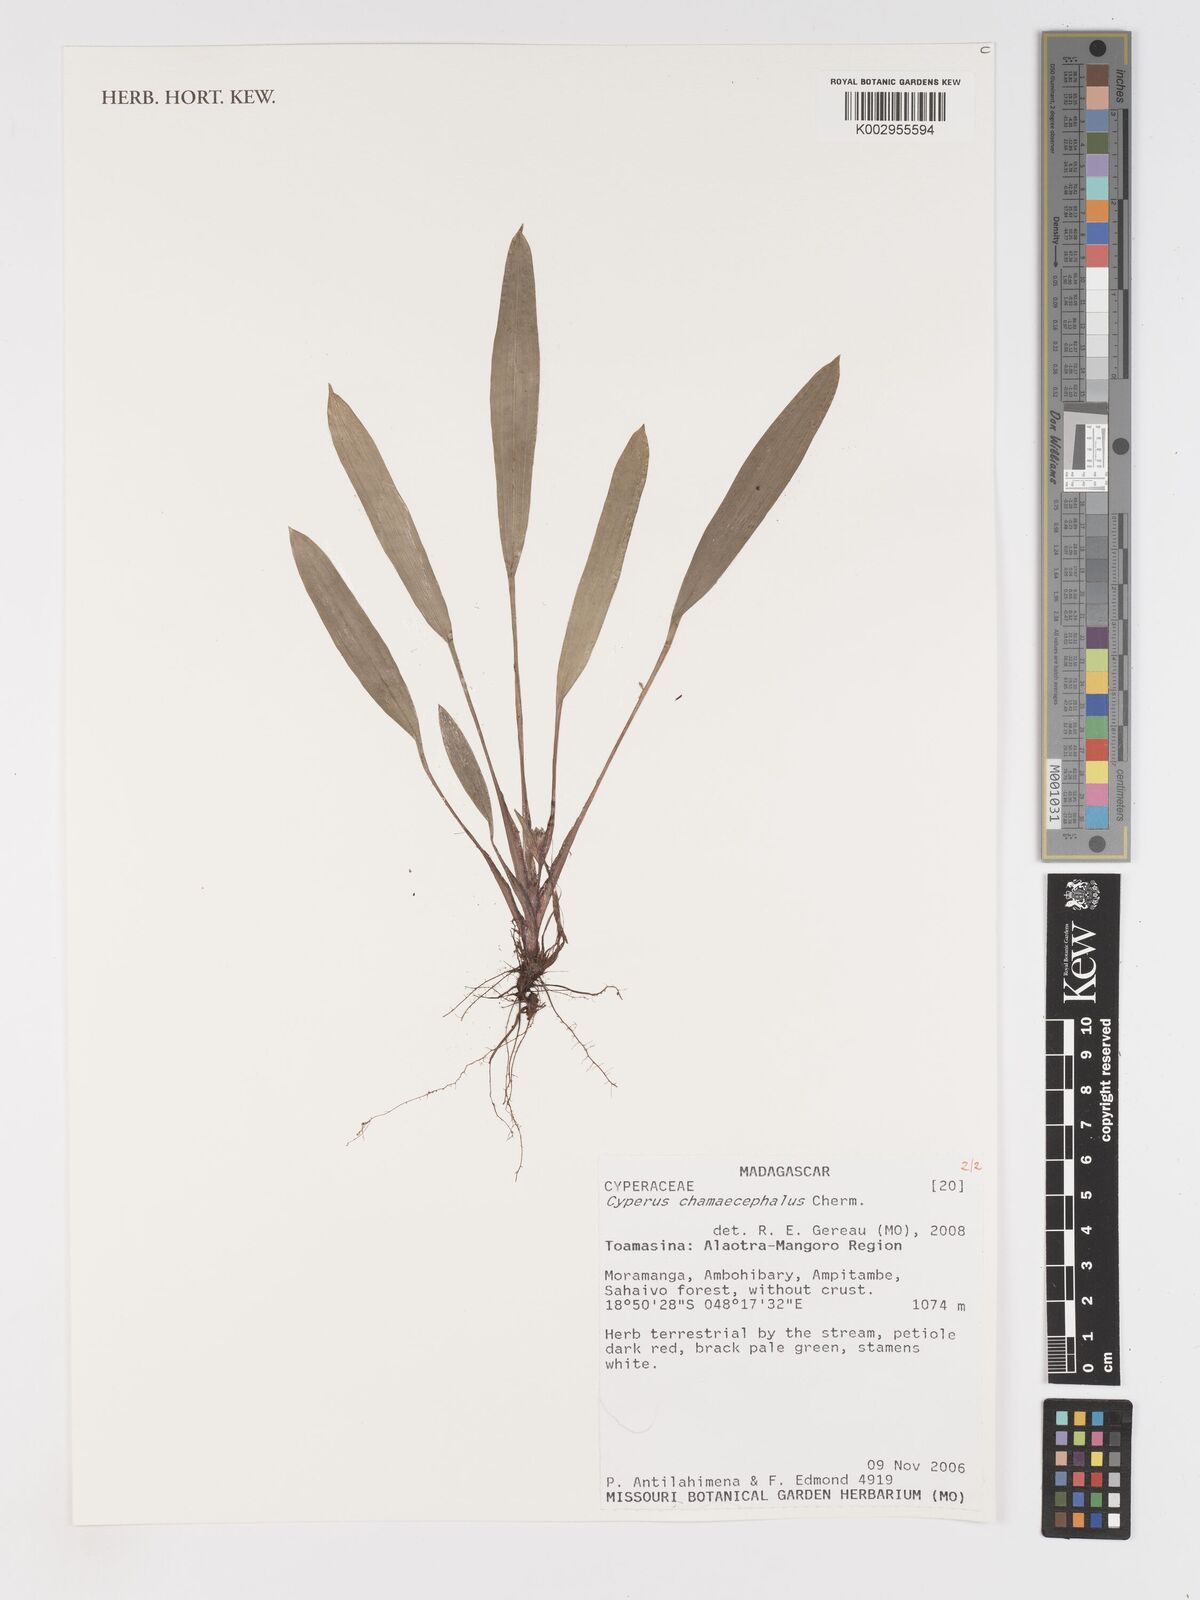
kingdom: Plantae
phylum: Tracheophyta
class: Liliopsida
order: Poales
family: Cyperaceae
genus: Cyperus
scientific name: Cyperus chamaecephalus
